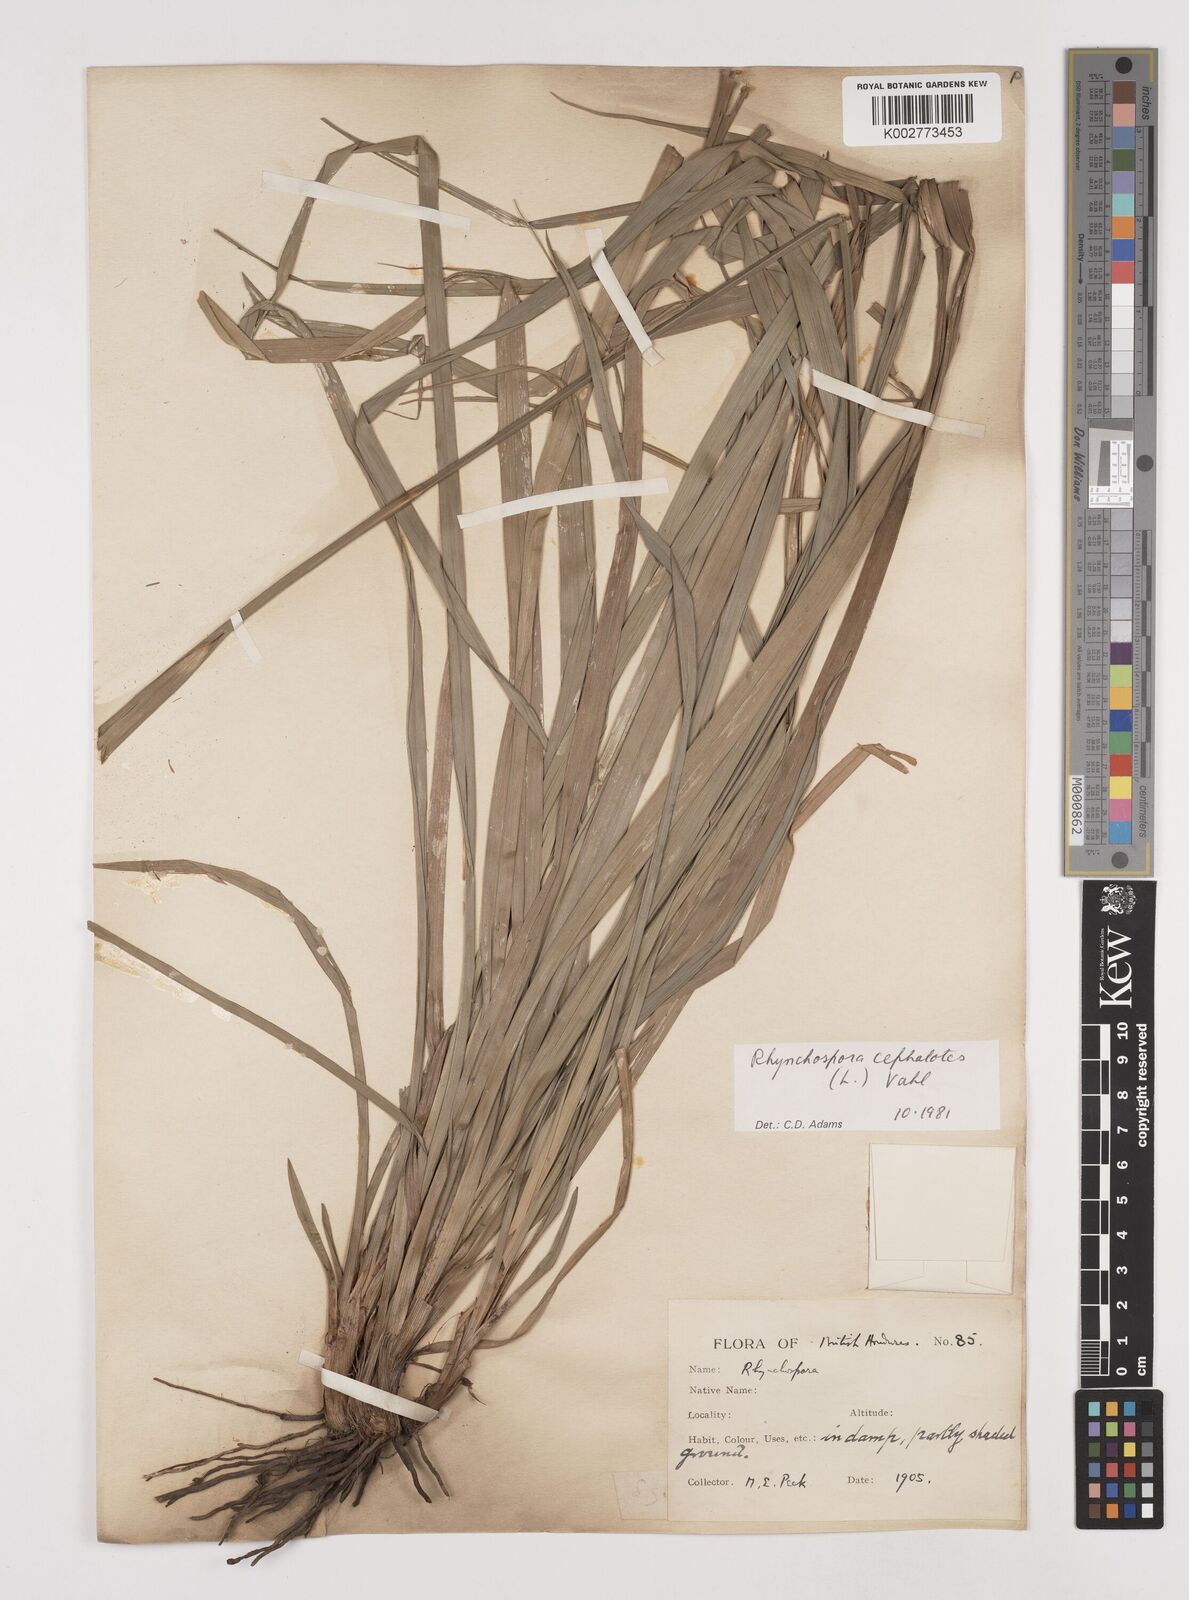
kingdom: Plantae
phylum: Tracheophyta
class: Liliopsida
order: Poales
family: Cyperaceae
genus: Rhynchospora
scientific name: Rhynchospora cephalotes
